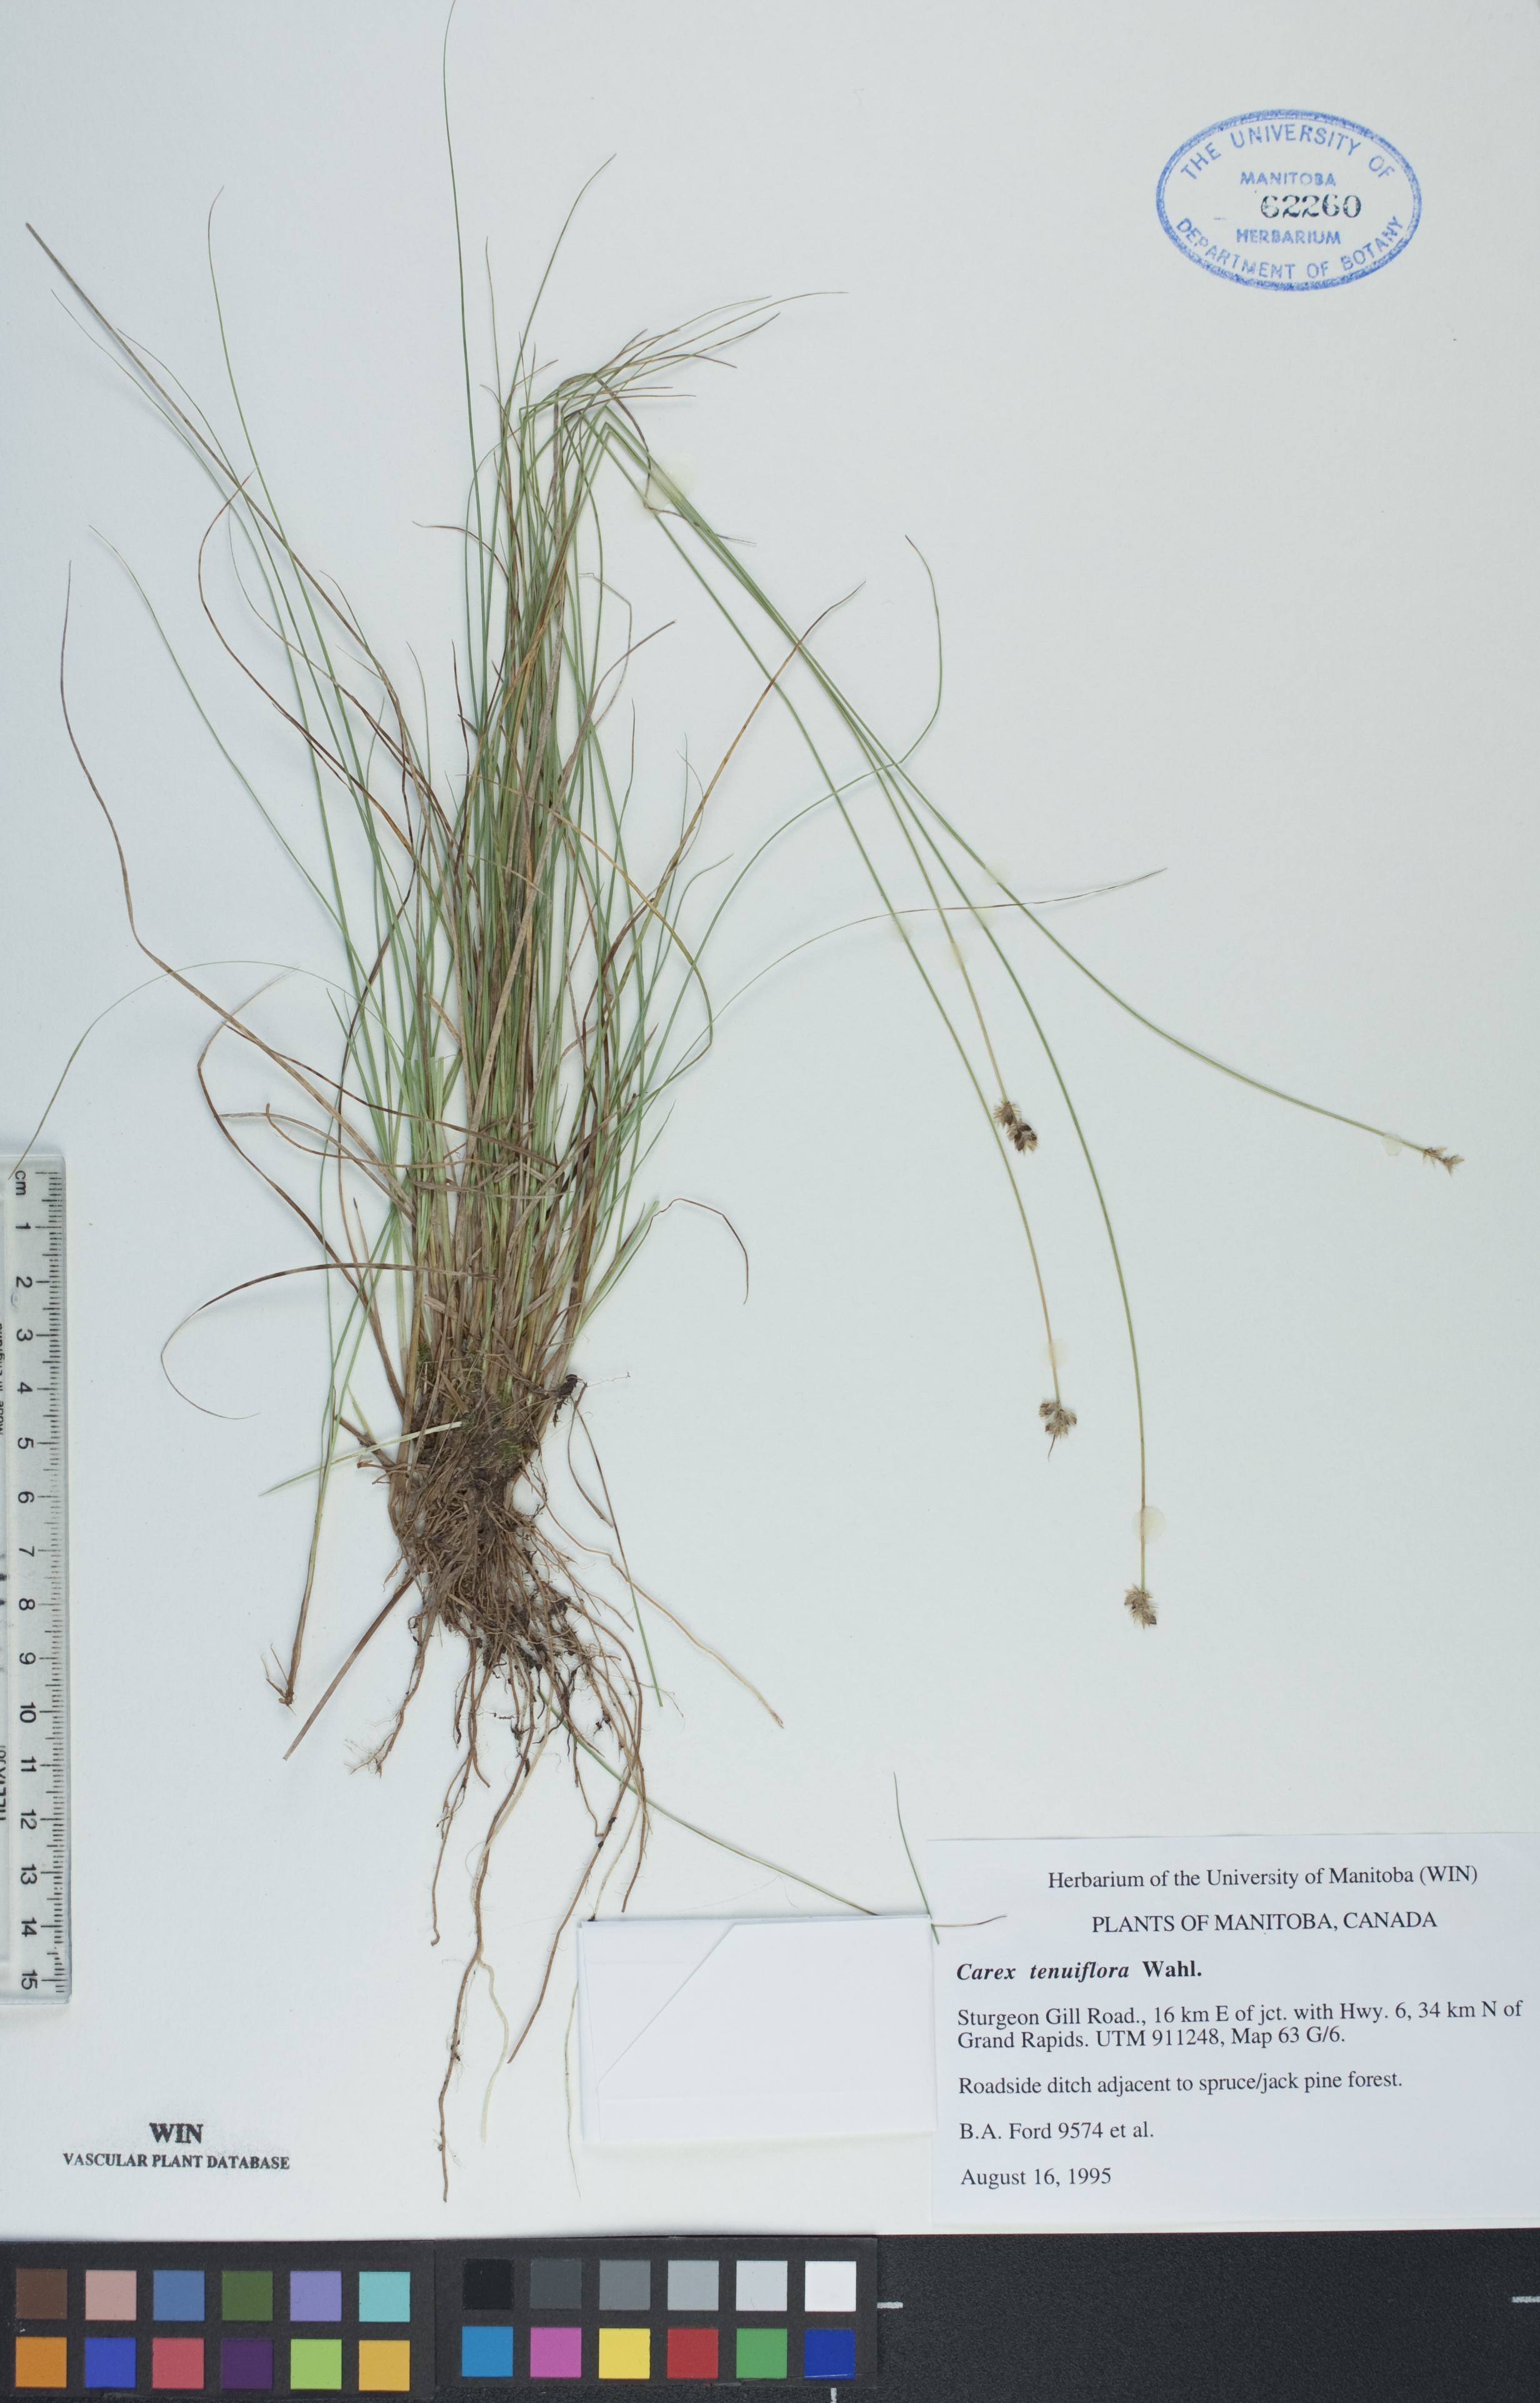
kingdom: Plantae
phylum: Tracheophyta
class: Liliopsida
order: Poales
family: Cyperaceae
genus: Carex
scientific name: Carex tenuiflora
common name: Sparse-flowered sedge
